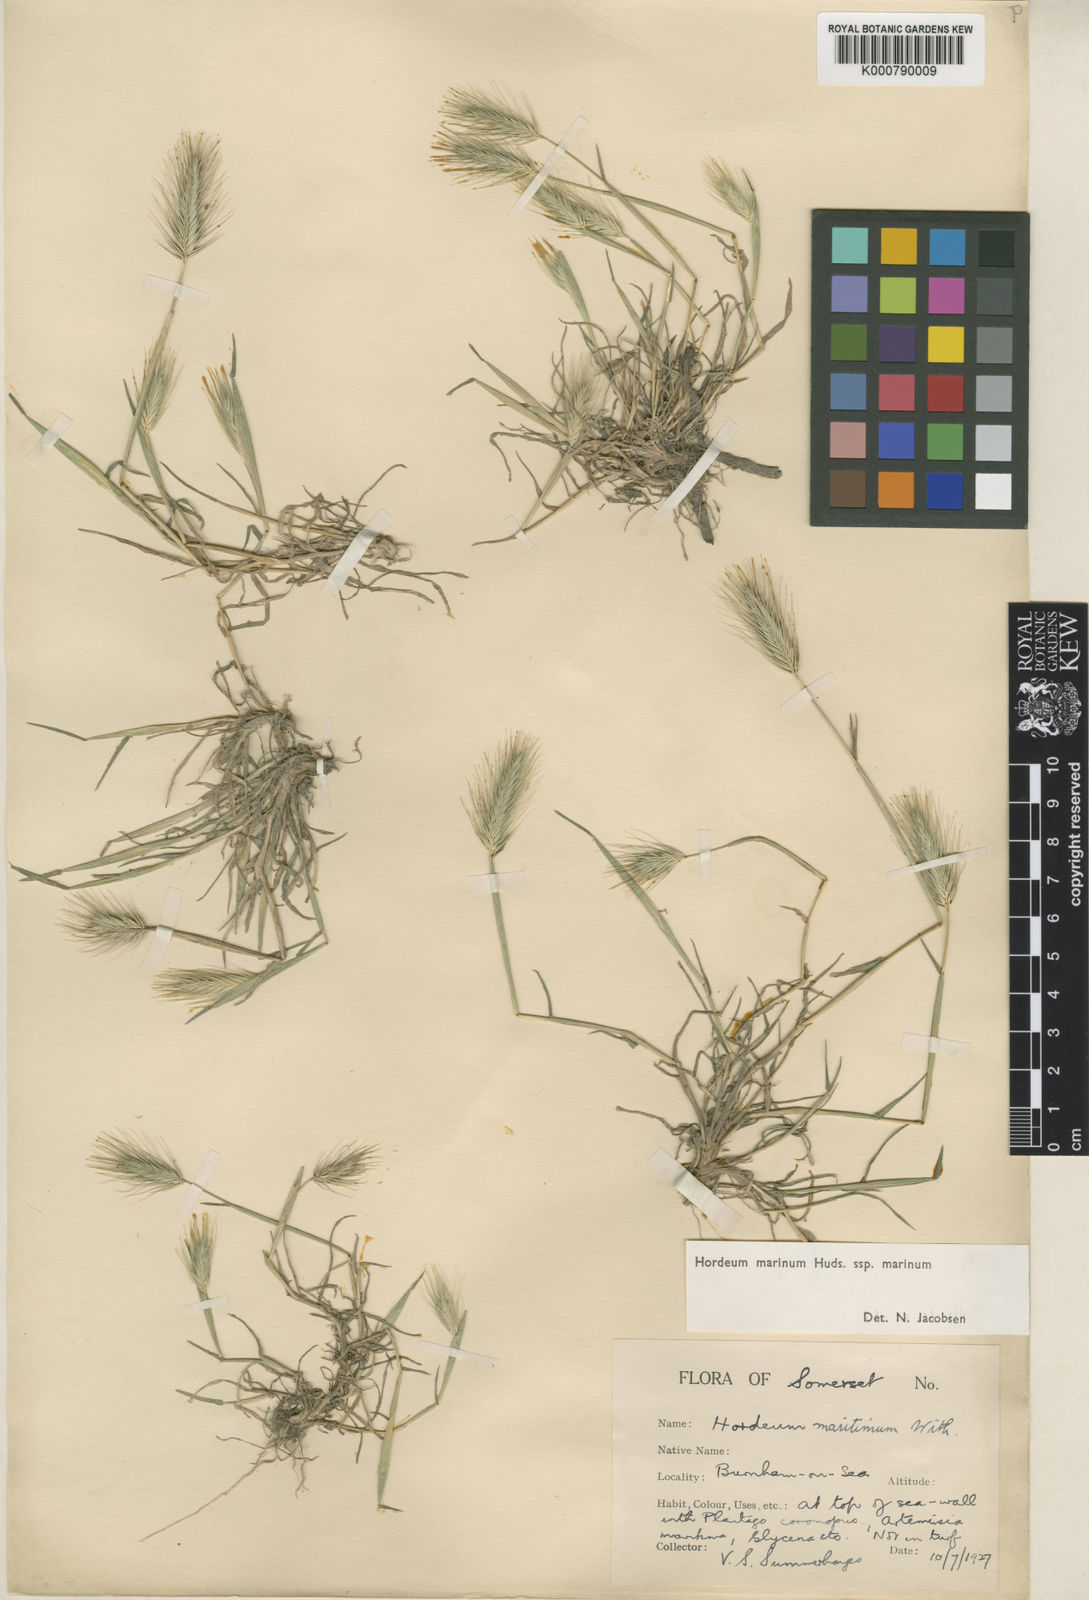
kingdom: Plantae
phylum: Tracheophyta
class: Liliopsida
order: Poales
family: Poaceae
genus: Hordeum
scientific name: Hordeum marinum
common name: Sea barley
